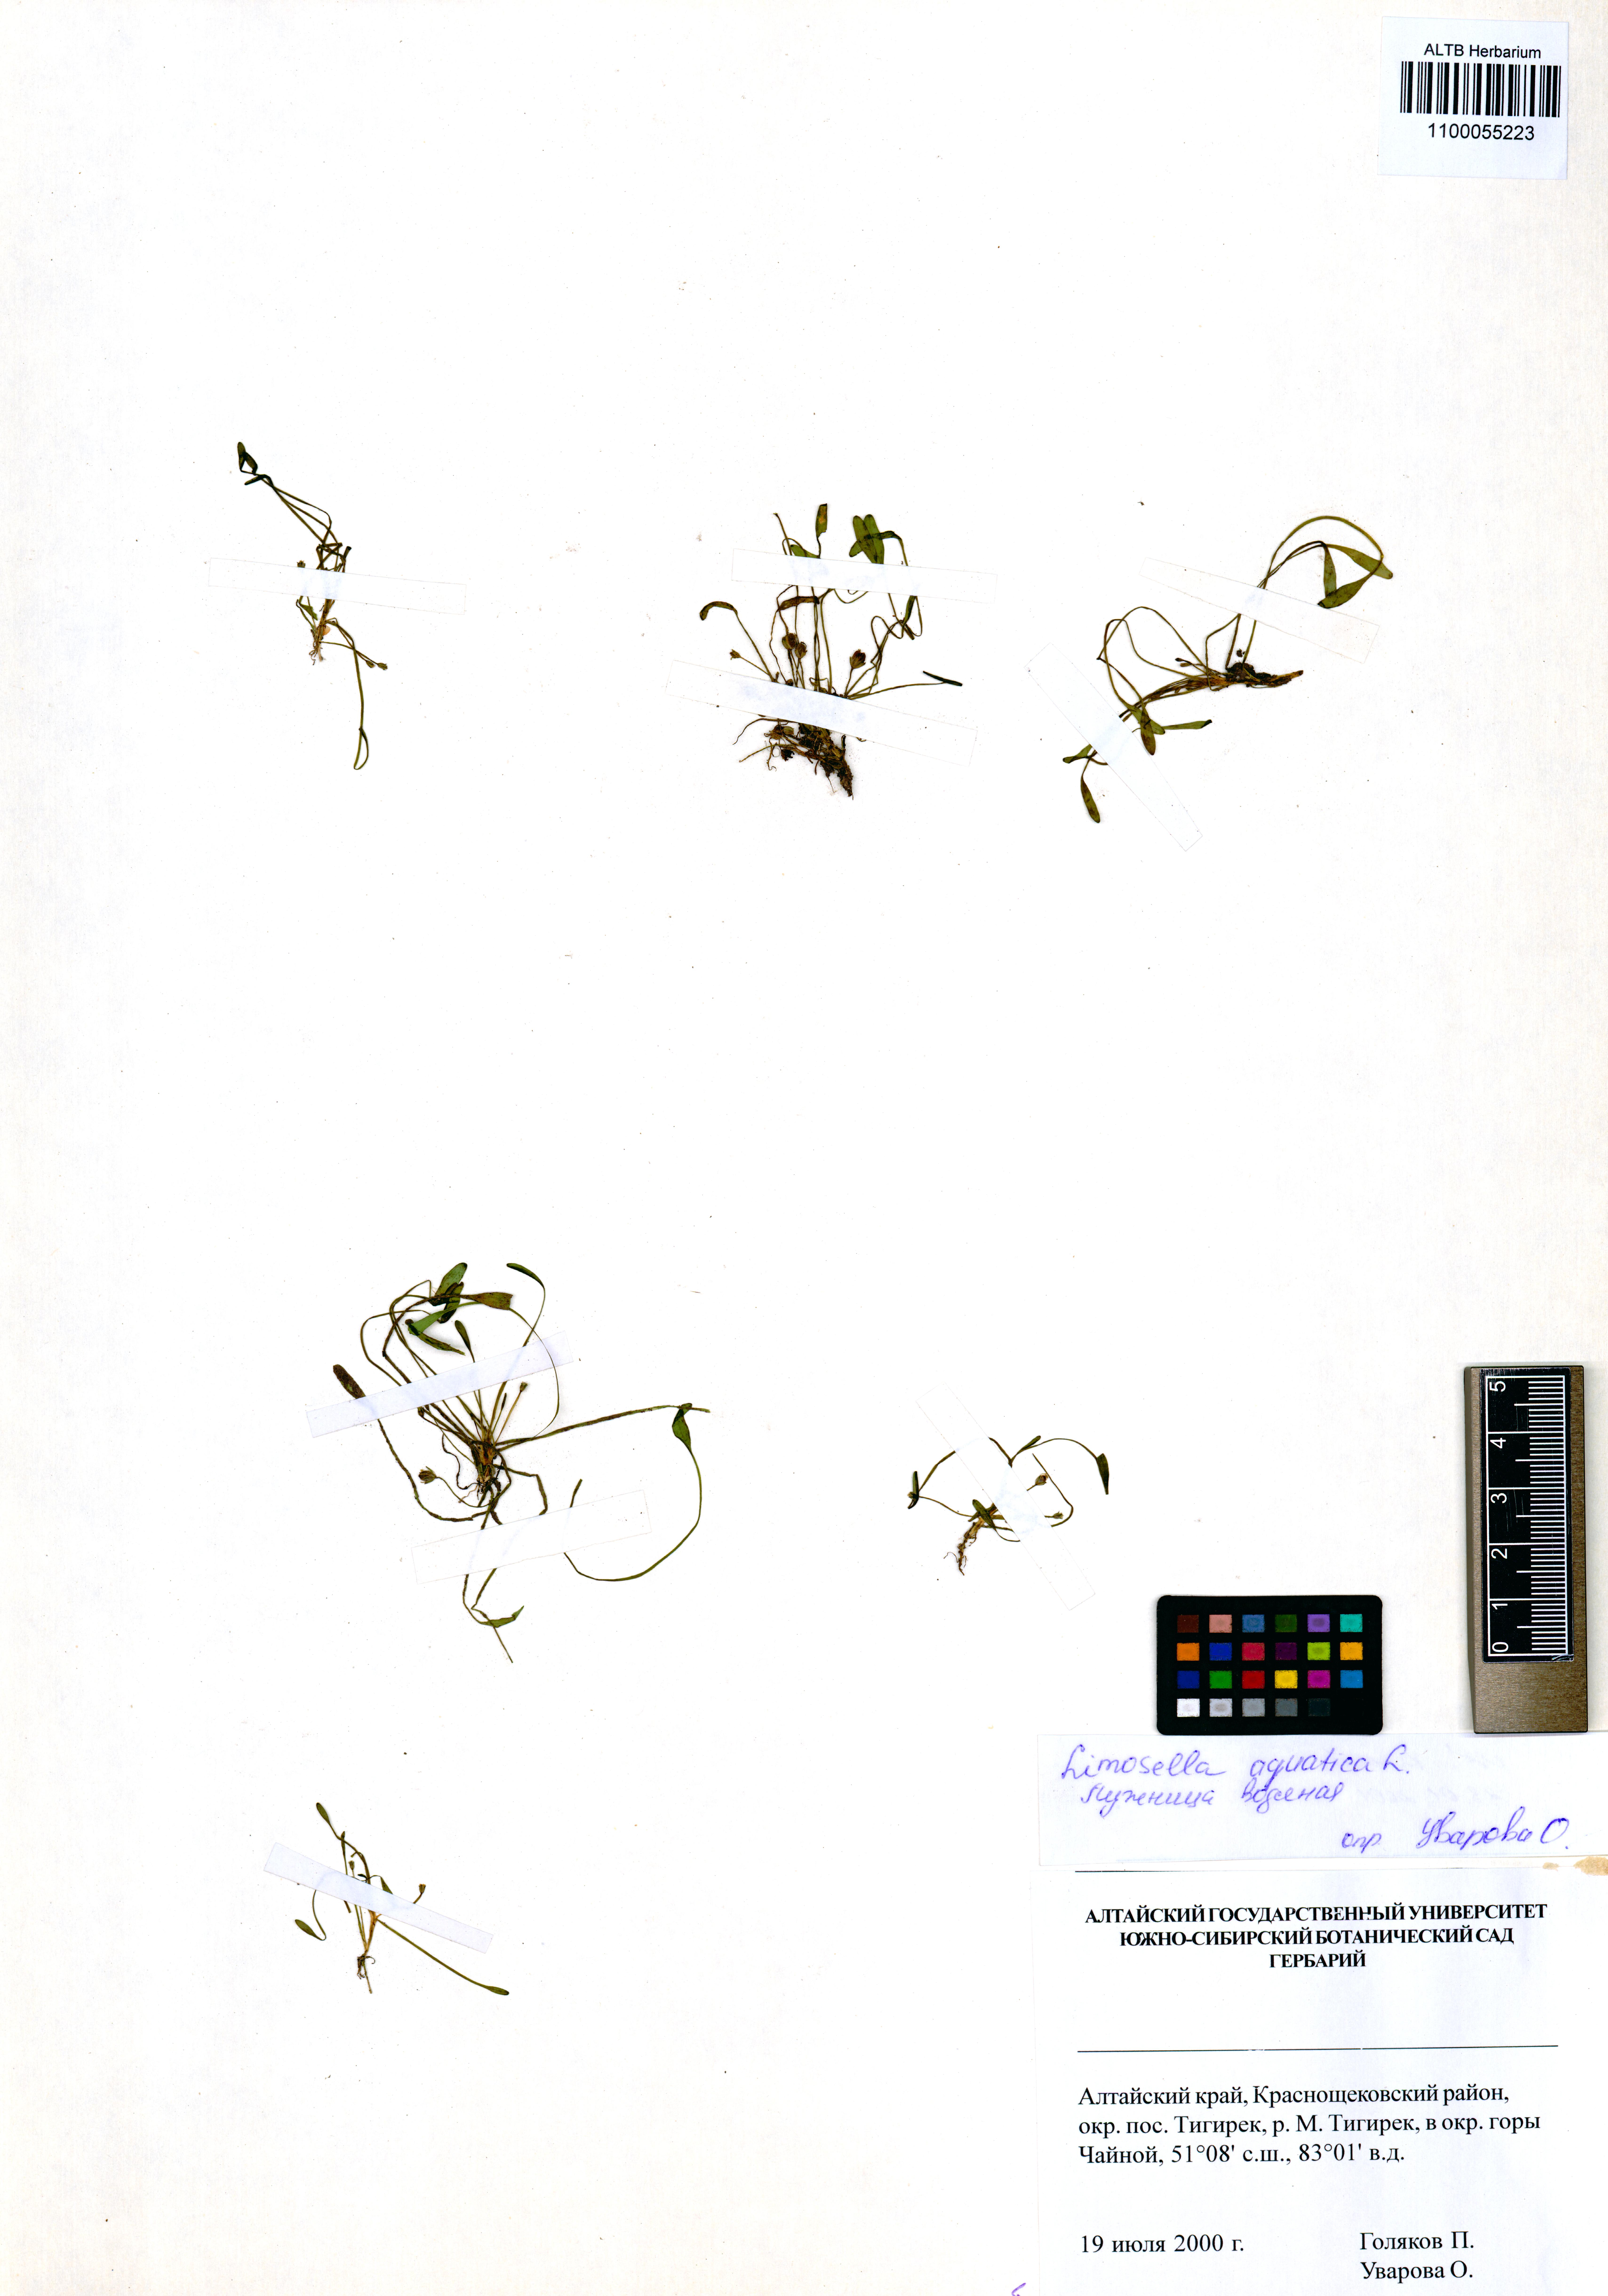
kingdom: Plantae
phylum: Tracheophyta
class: Magnoliopsida
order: Lamiales
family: Scrophulariaceae
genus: Limosella
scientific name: Limosella aquatica
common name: Mudwort
